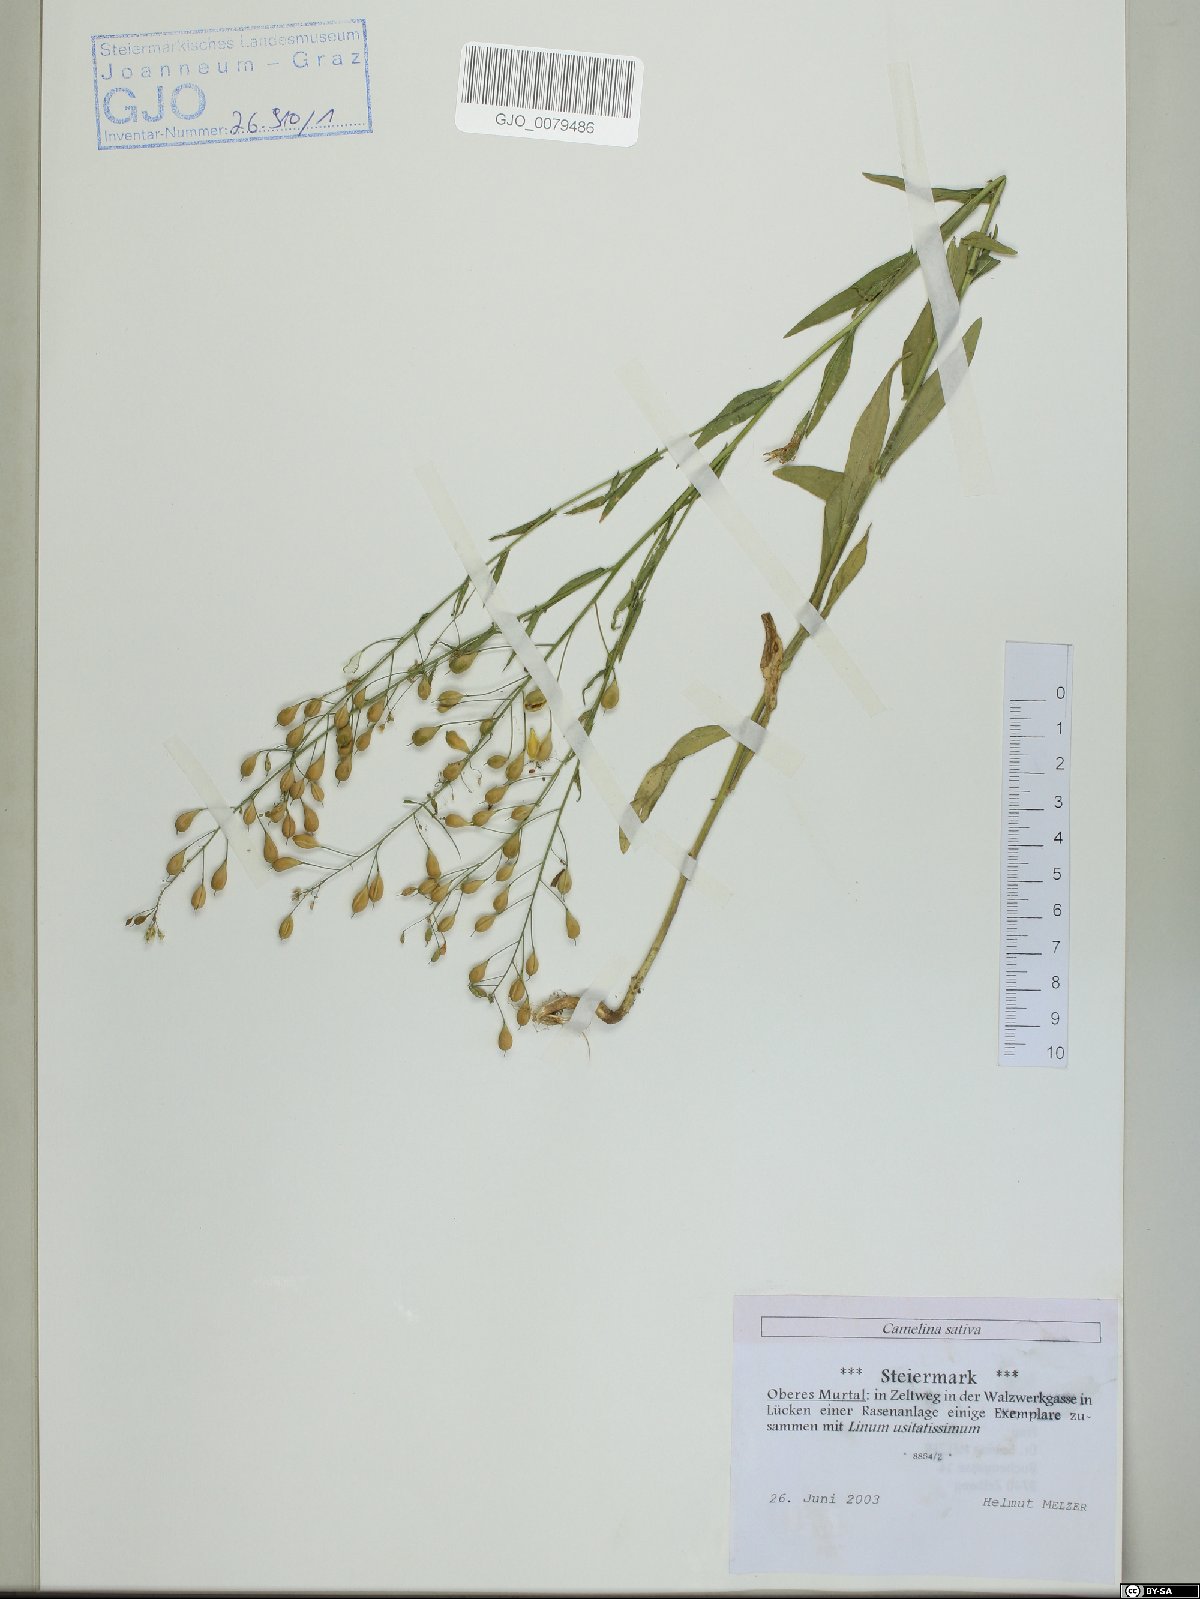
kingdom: Plantae
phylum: Tracheophyta
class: Magnoliopsida
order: Brassicales
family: Brassicaceae
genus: Camelina
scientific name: Camelina sativa
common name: Gold-of-pleasure
